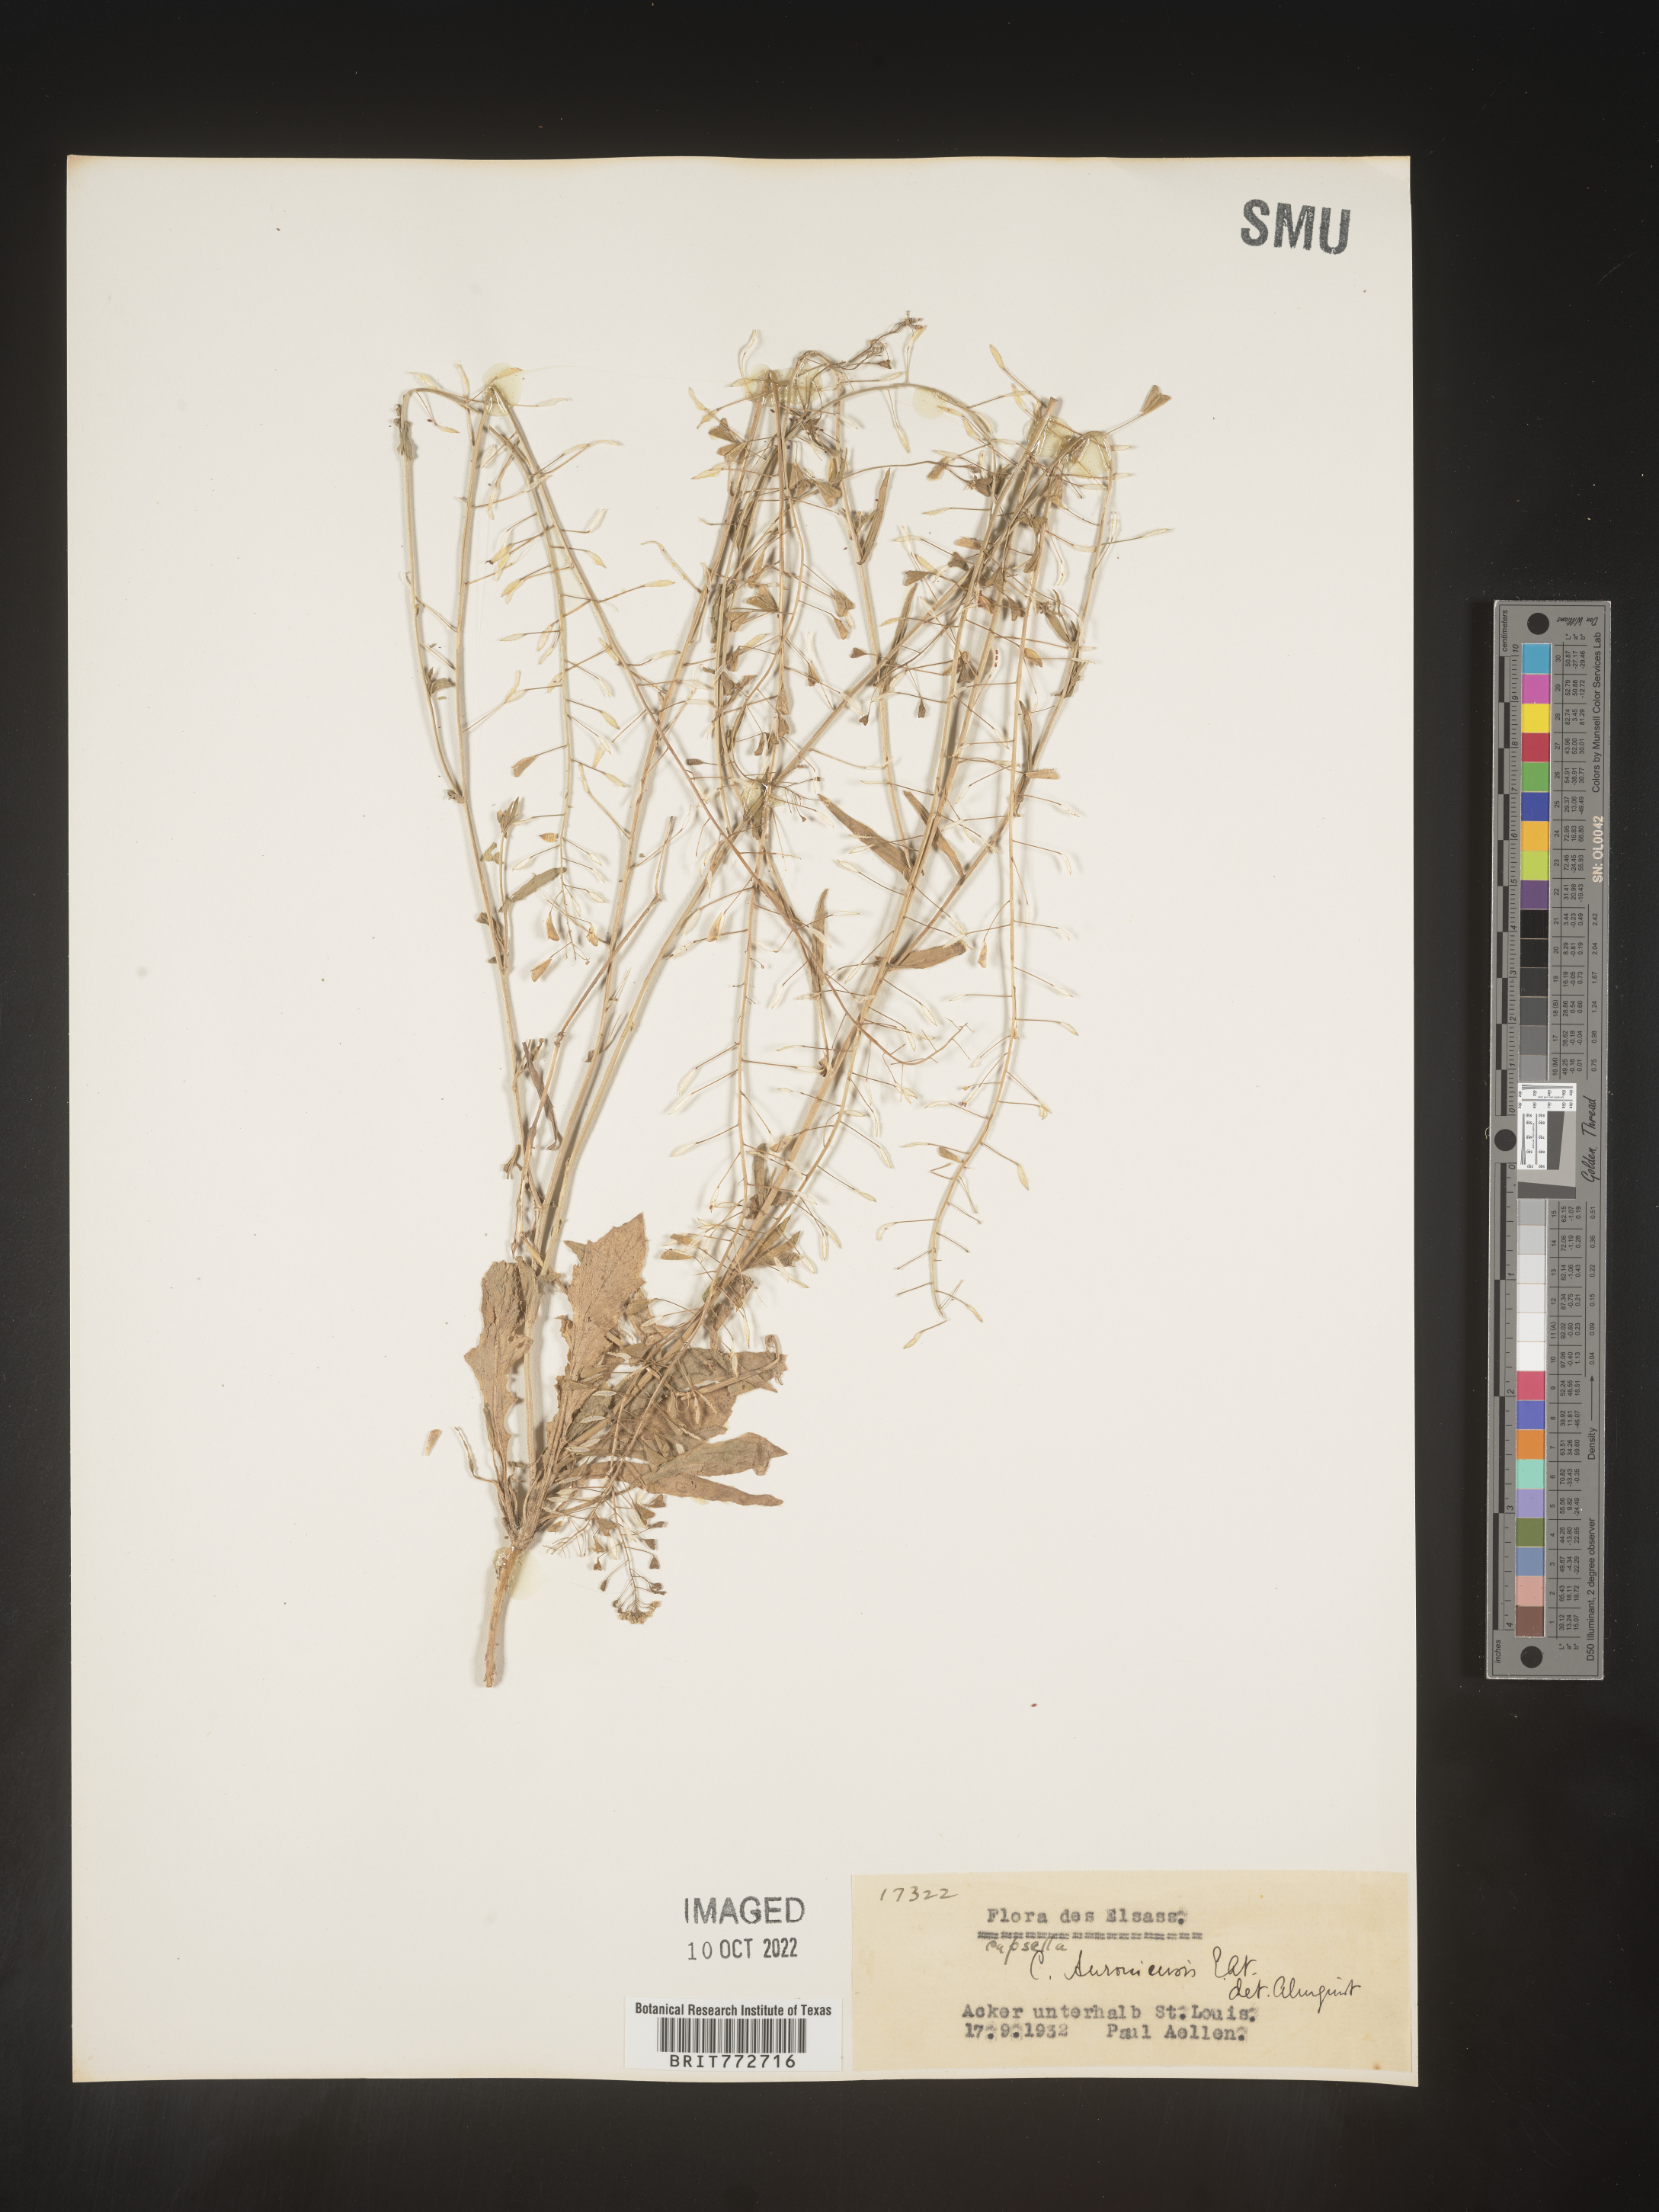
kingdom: Plantae
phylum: Tracheophyta
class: Magnoliopsida
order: Brassicales
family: Brassicaceae
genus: Capsella
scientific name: Capsella
